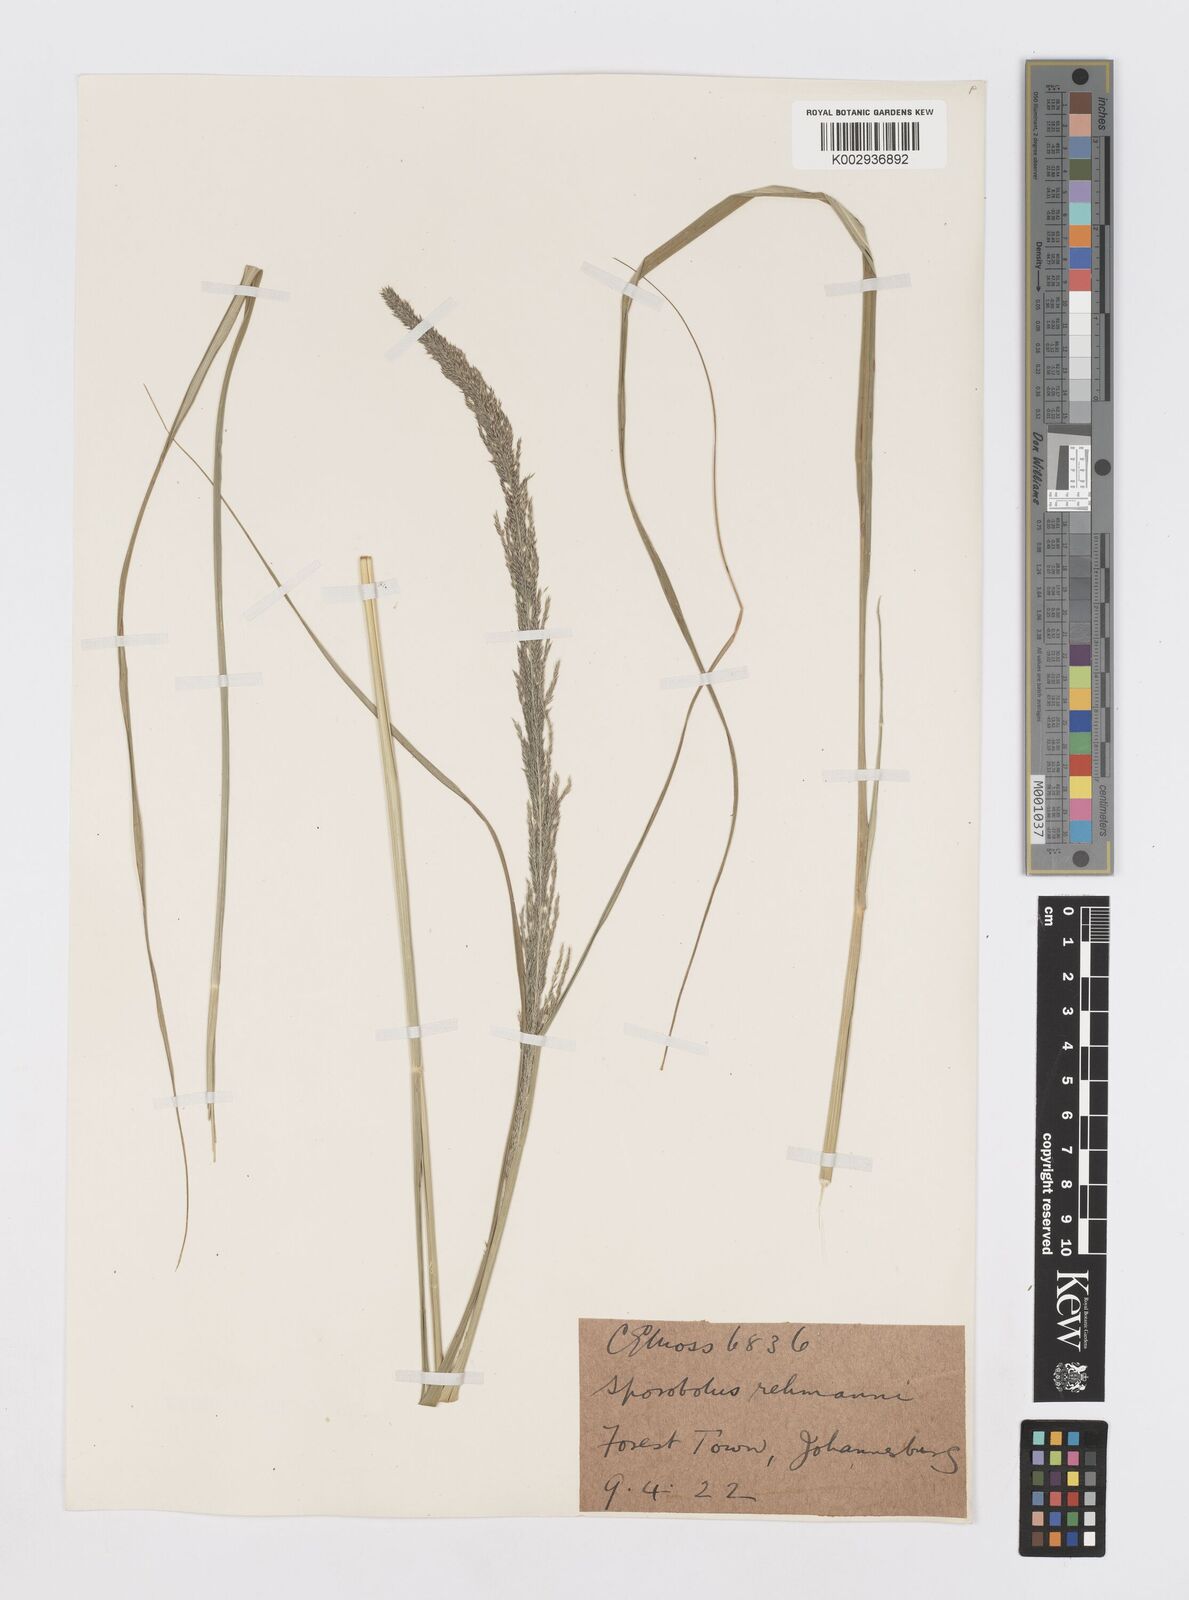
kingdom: Plantae
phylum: Tracheophyta
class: Liliopsida
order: Poales
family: Poaceae
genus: Sporobolus
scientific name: Sporobolus natalensis
